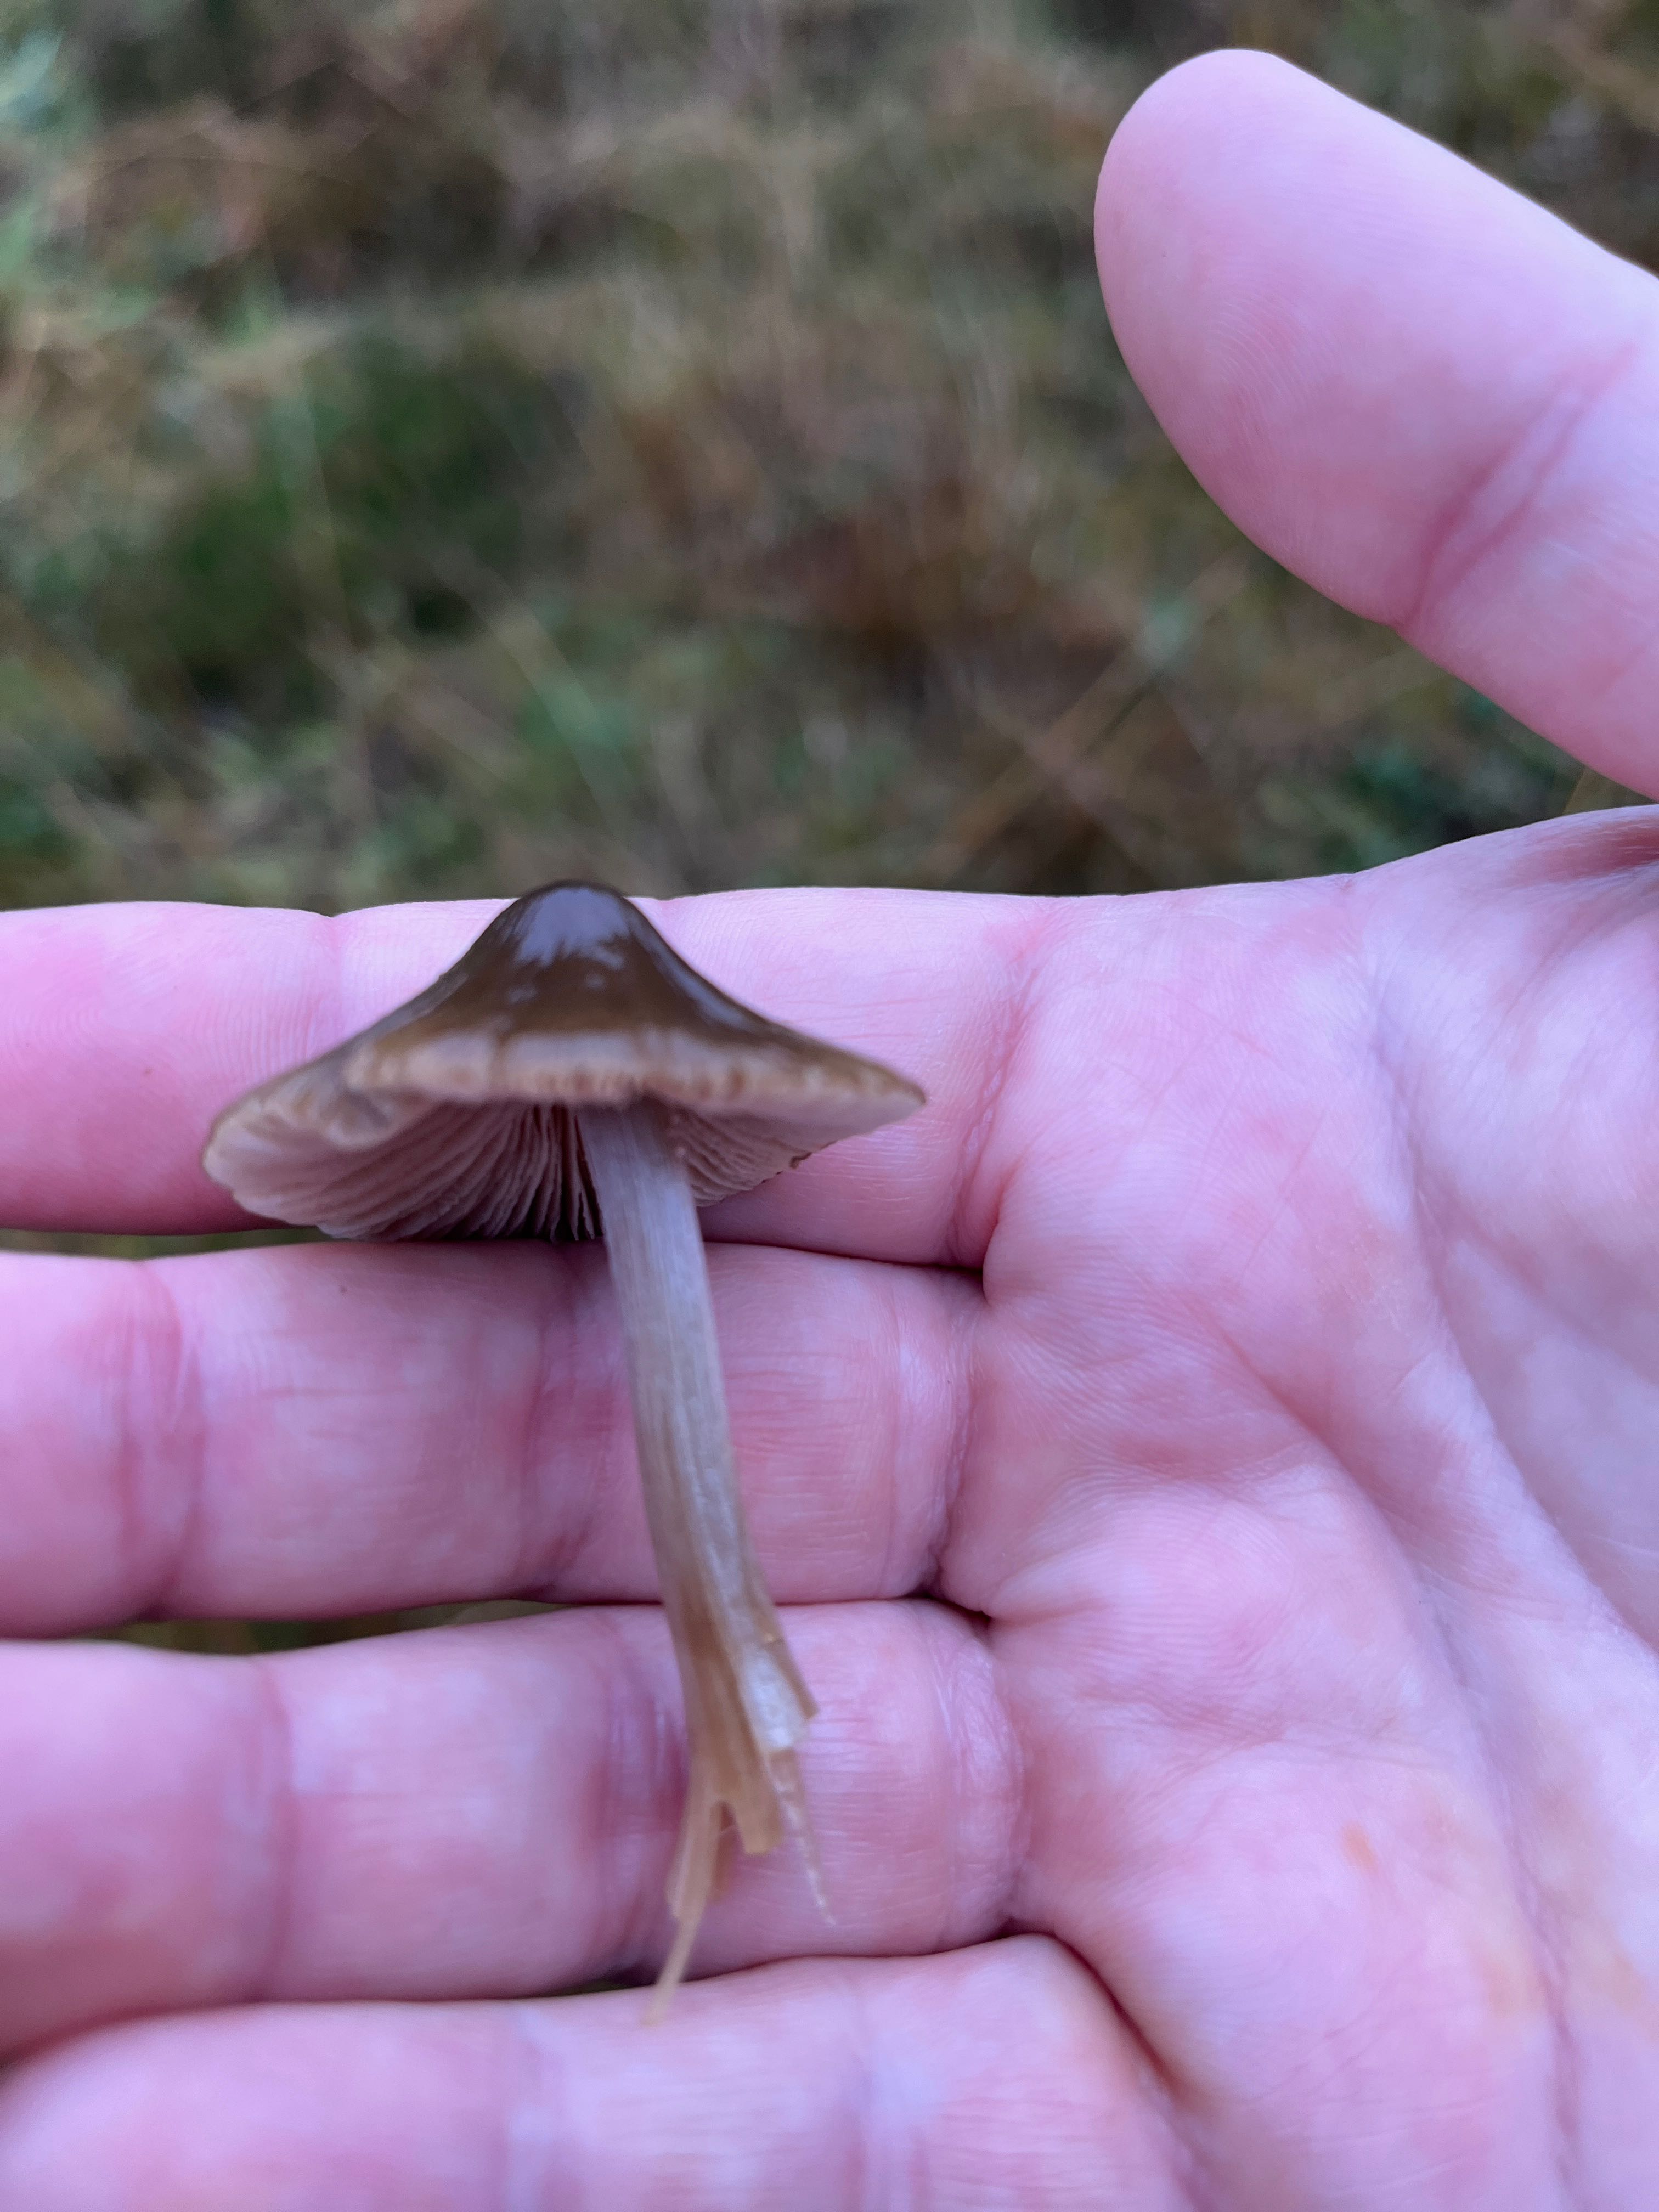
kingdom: Fungi
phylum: Basidiomycota
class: Agaricomycetes
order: Agaricales
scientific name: Agaricales
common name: champignonordenen
